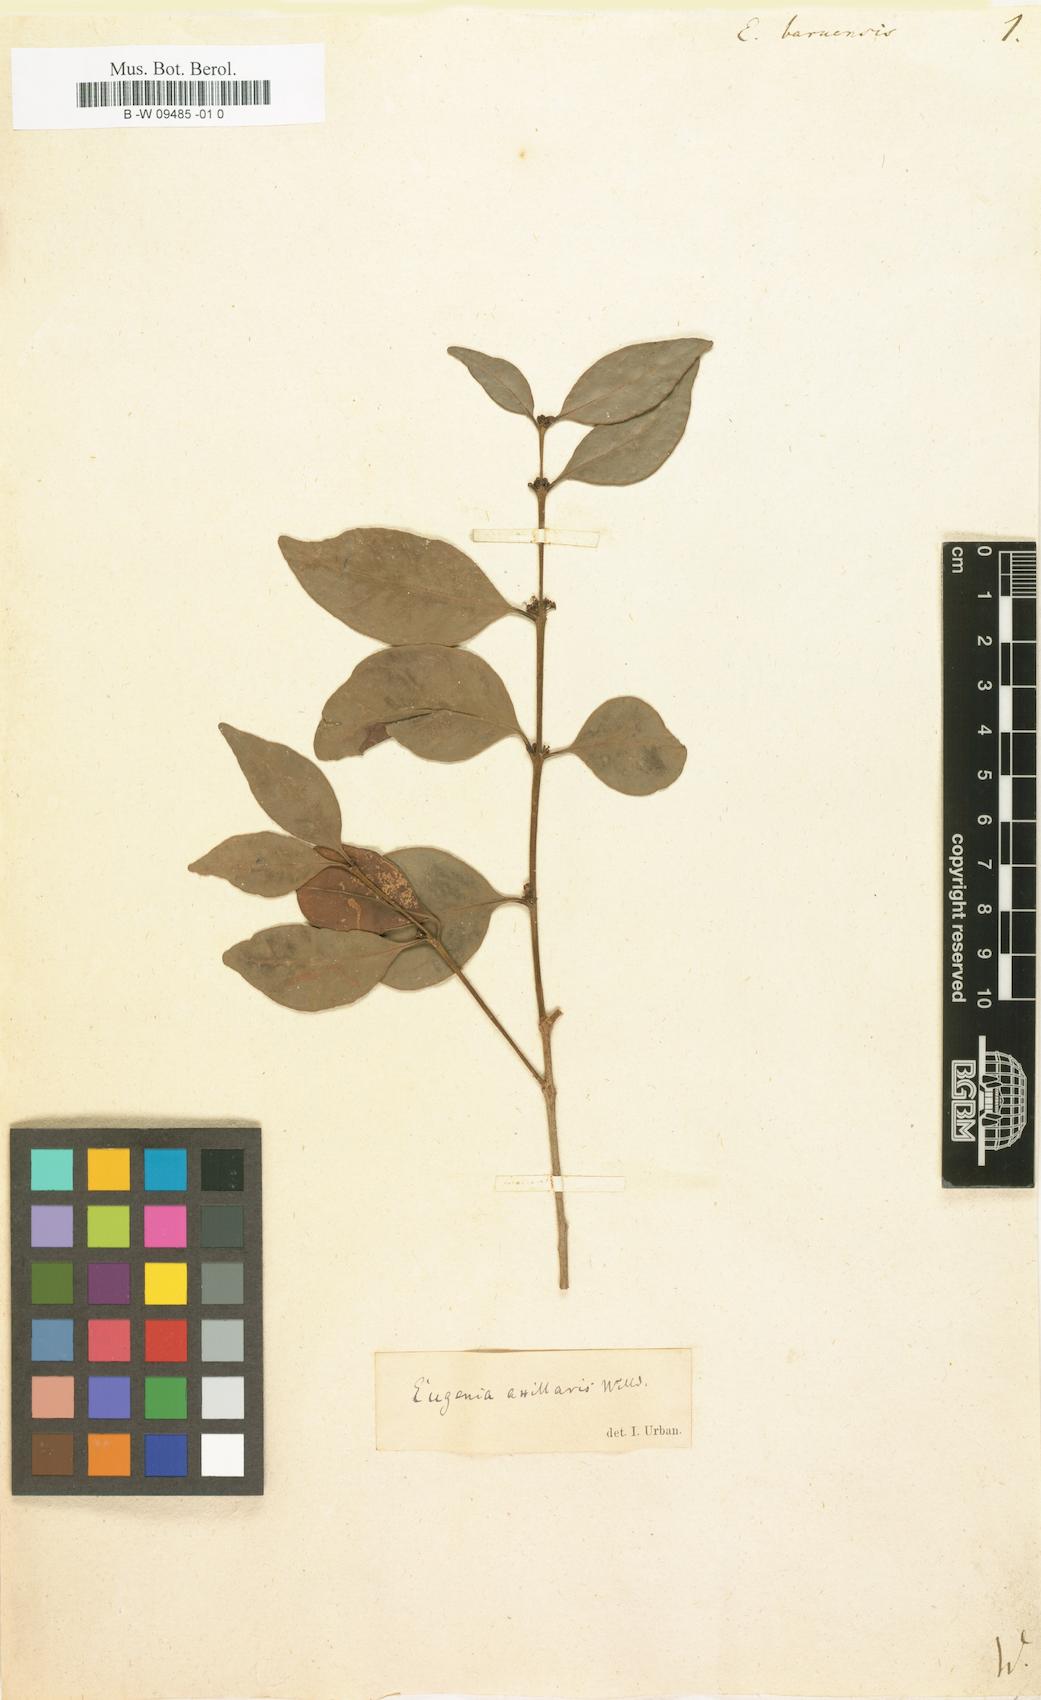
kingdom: Plantae
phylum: Tracheophyta
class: Magnoliopsida
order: Myrtales
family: Myrtaceae
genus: Eugenia
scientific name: Eugenia acapulcensis
